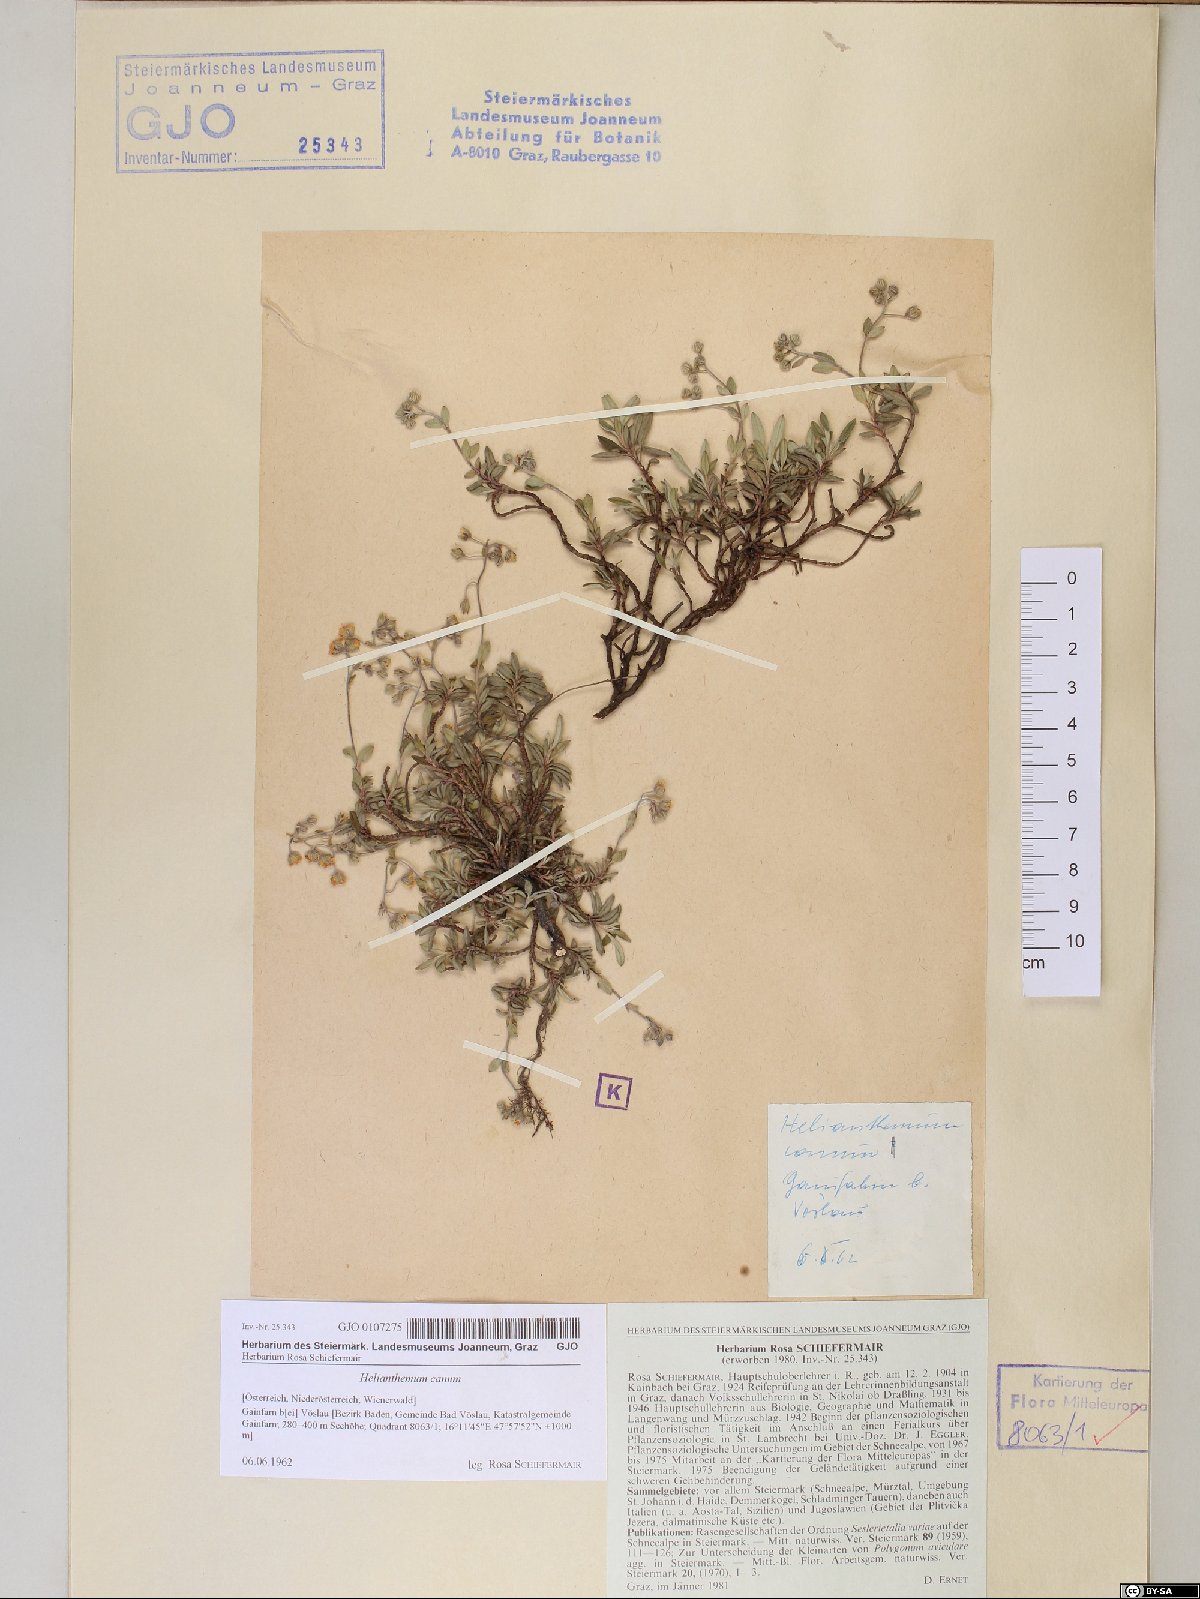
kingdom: Plantae
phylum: Tracheophyta
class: Magnoliopsida
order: Malvales
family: Cistaceae
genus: Helianthemum
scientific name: Helianthemum canum
